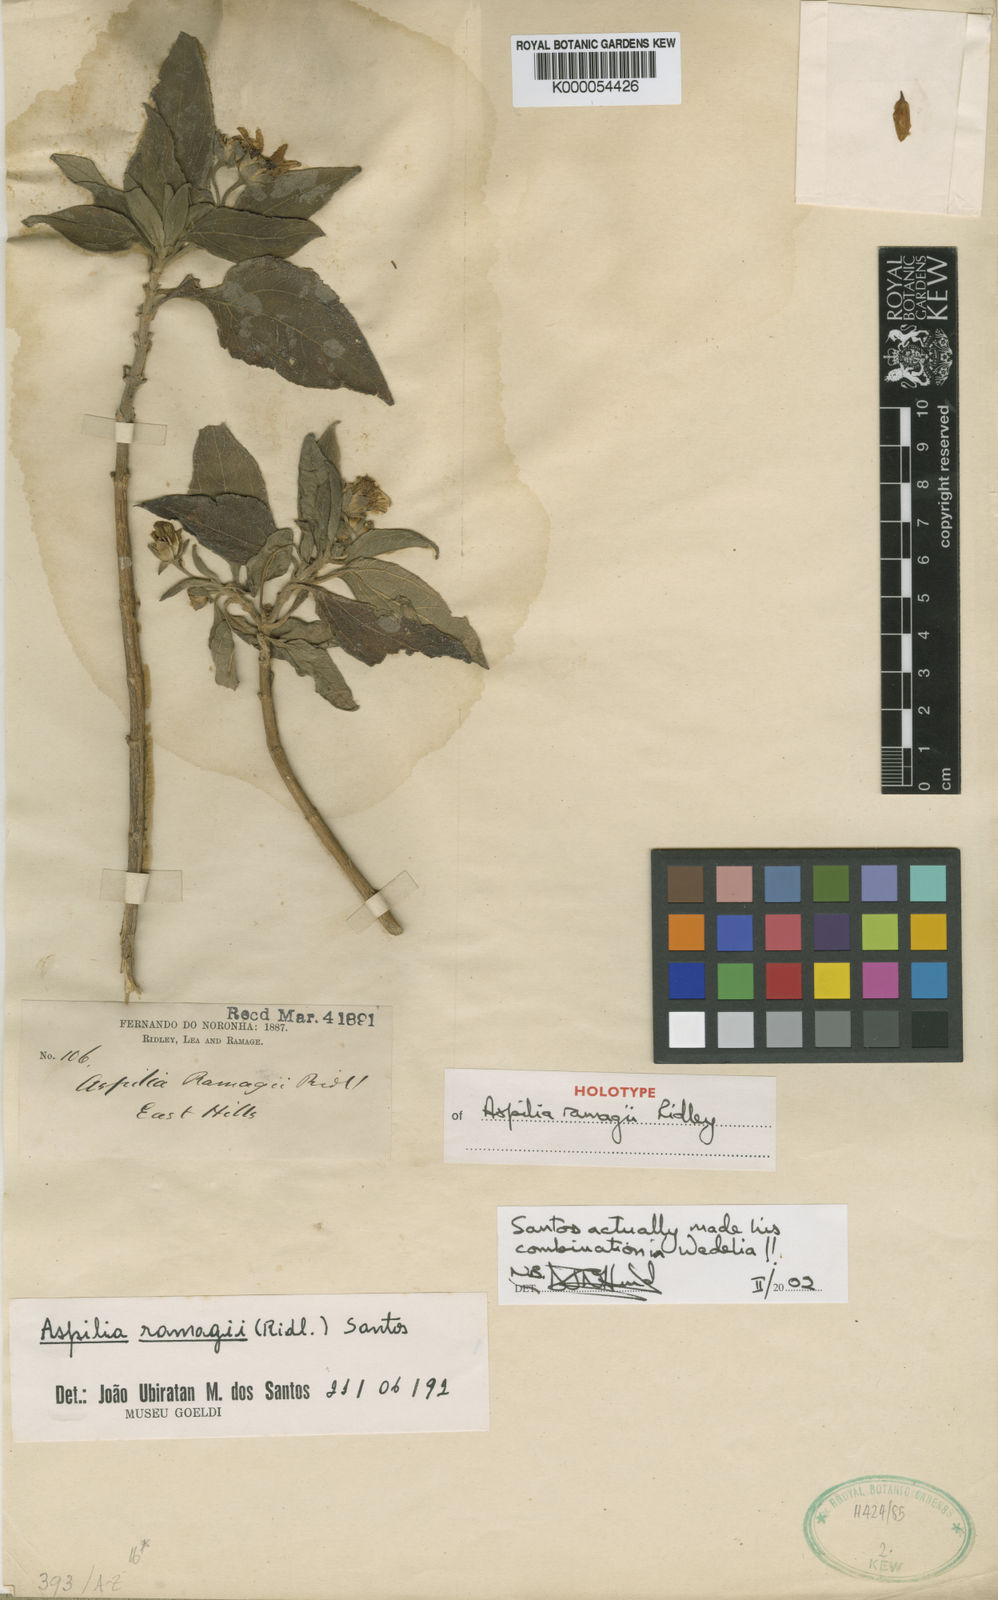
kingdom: Plantae
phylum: Tracheophyta
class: Magnoliopsida
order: Asterales
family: Asteraceae
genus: Wedelia
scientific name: Wedelia ramagii
